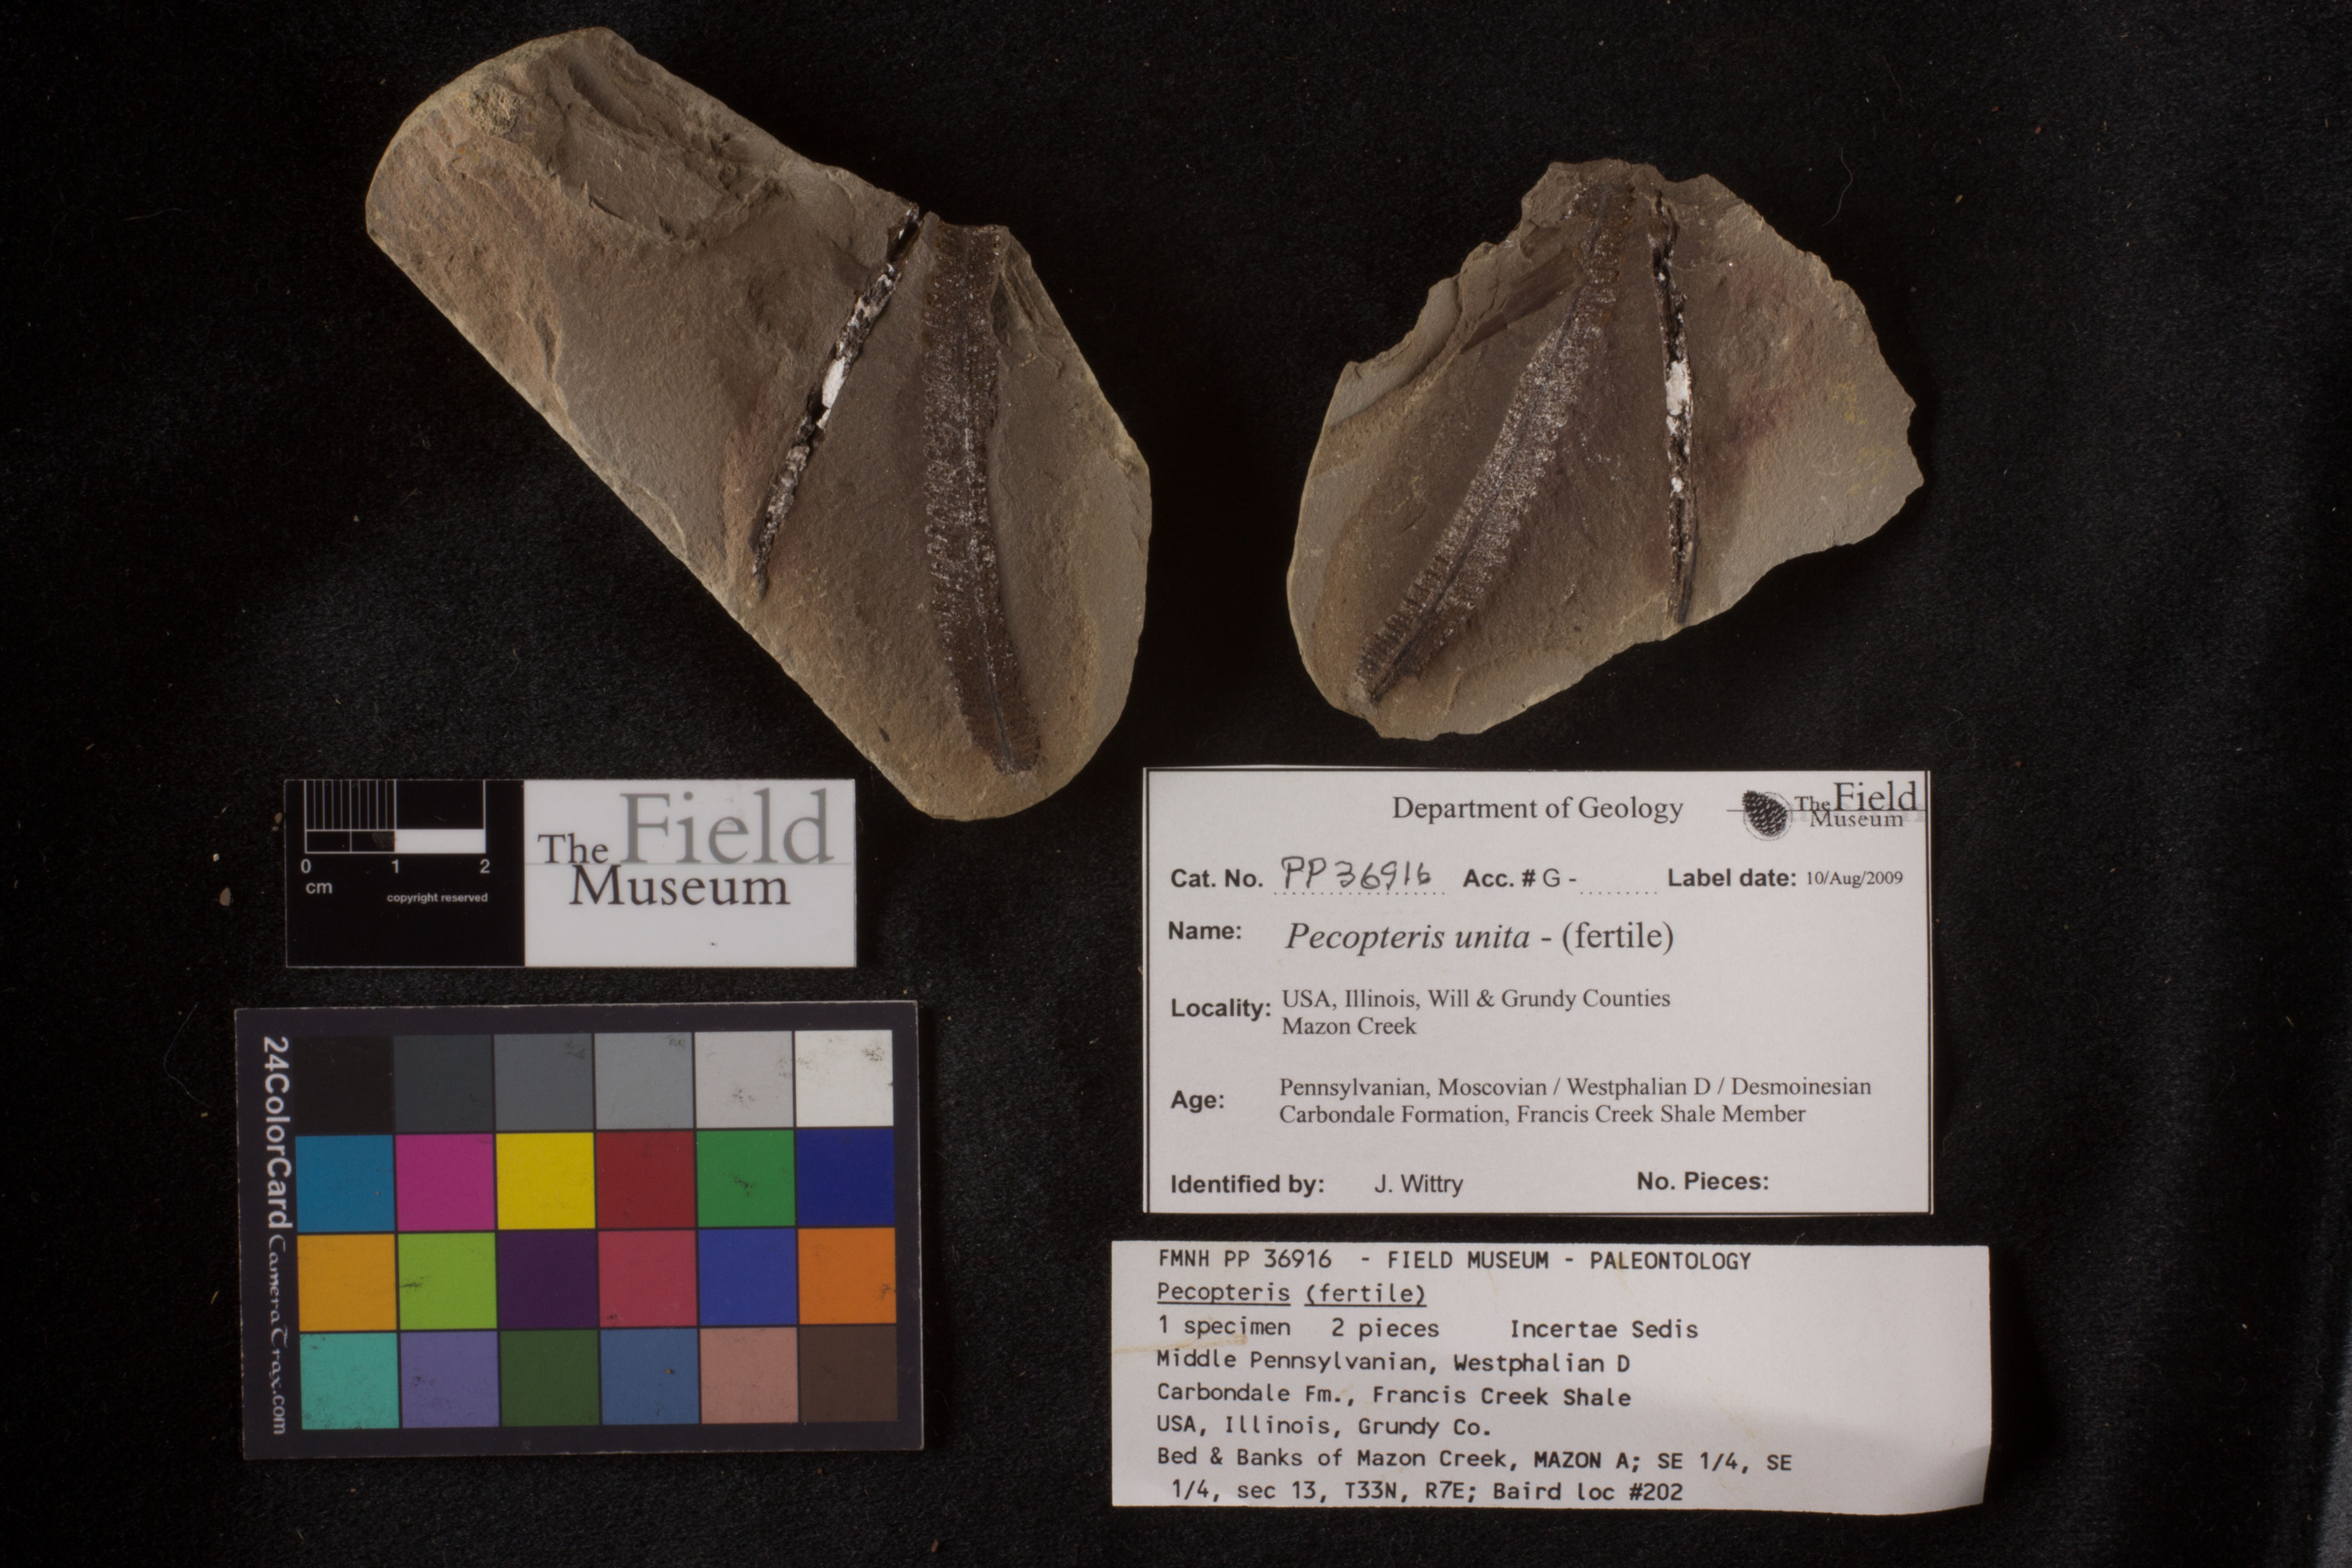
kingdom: Plantae
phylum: Tracheophyta
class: Polypodiopsida
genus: Diplazites
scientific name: Diplazites
